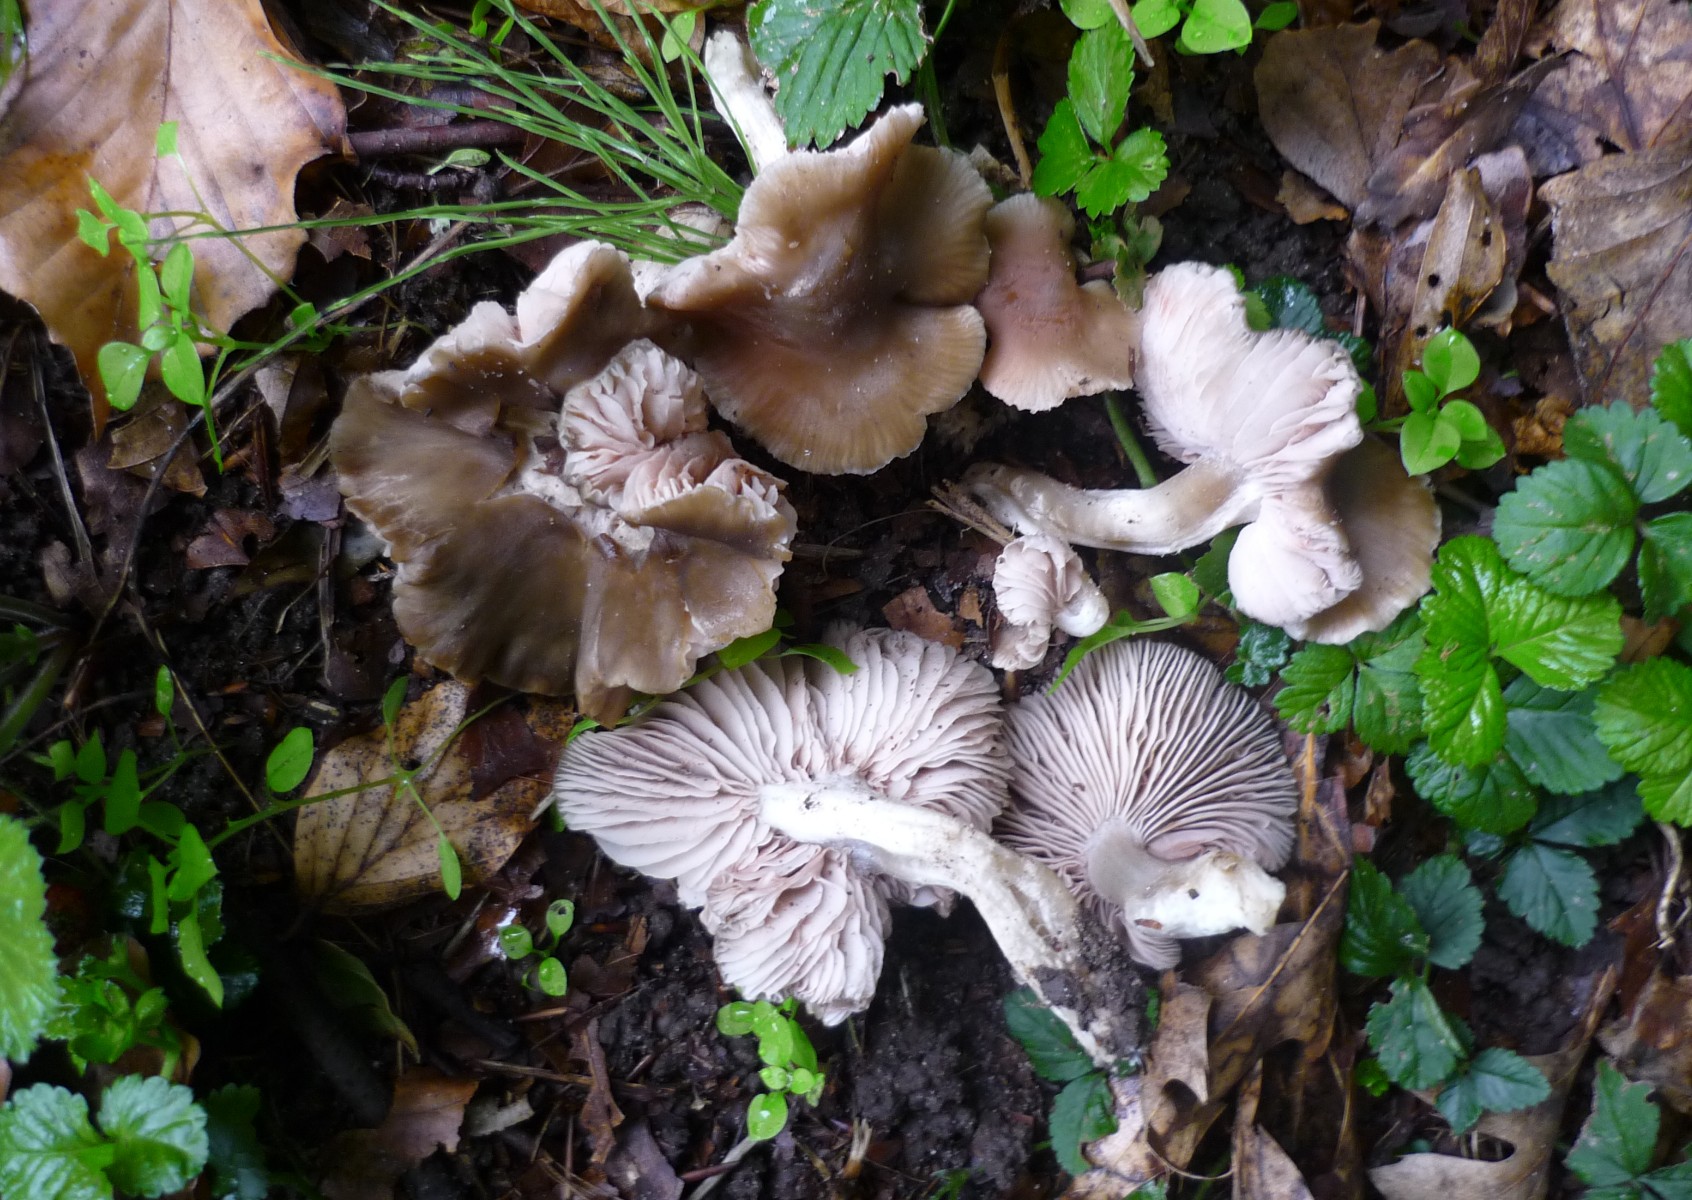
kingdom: Fungi
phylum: Basidiomycota
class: Agaricomycetes
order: Agaricales
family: Entolomataceae
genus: Entoloma
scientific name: Entoloma lividoalbum
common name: lysstokket rødblad
